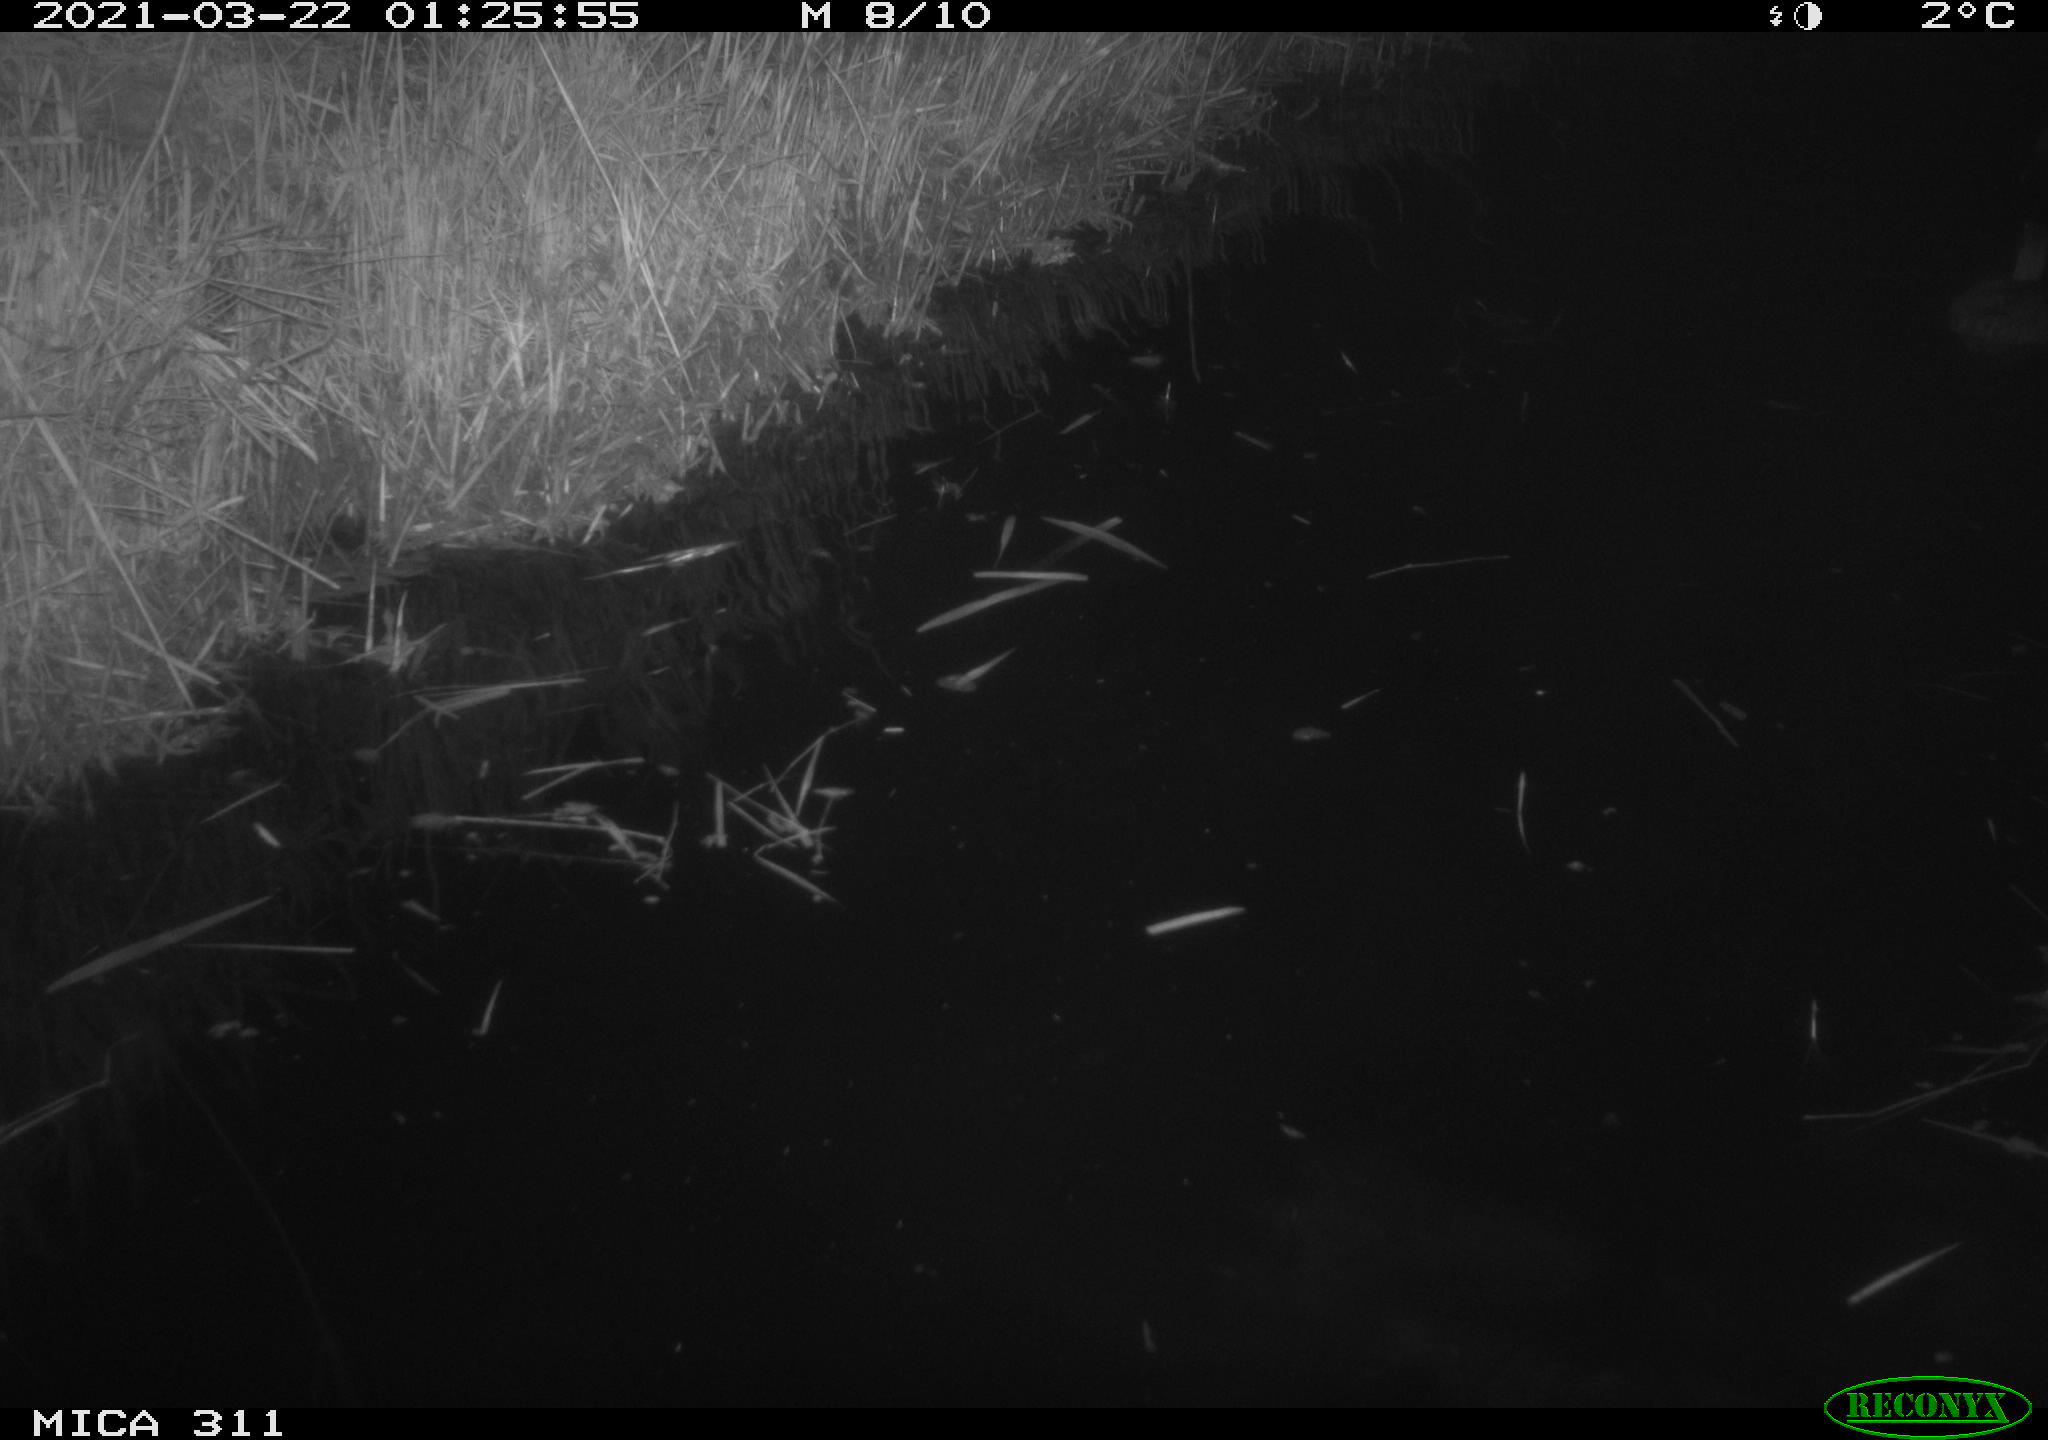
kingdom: Animalia
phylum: Chordata
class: Aves
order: Anseriformes
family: Anatidae
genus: Anas
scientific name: Anas platyrhynchos
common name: Mallard
